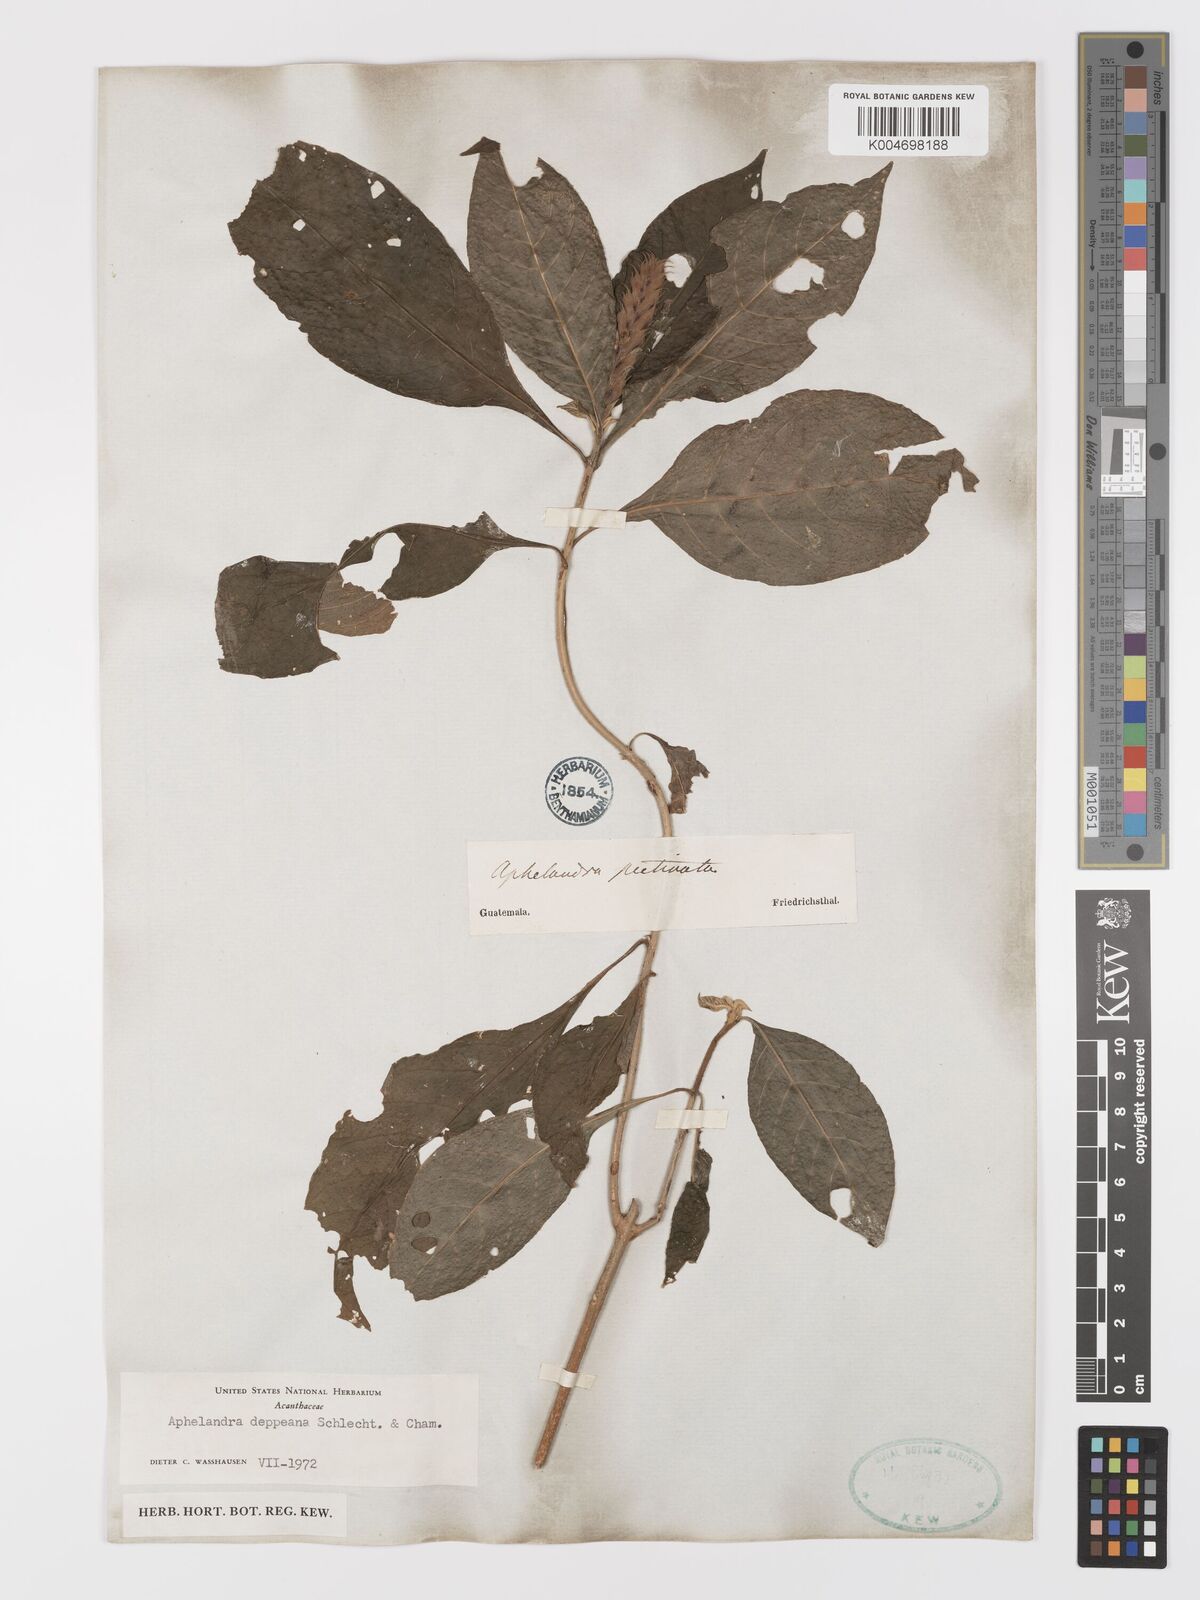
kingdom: Plantae
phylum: Tracheophyta
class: Magnoliopsida
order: Lamiales
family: Acanthaceae
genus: Aphelandra
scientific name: Aphelandra scabra
